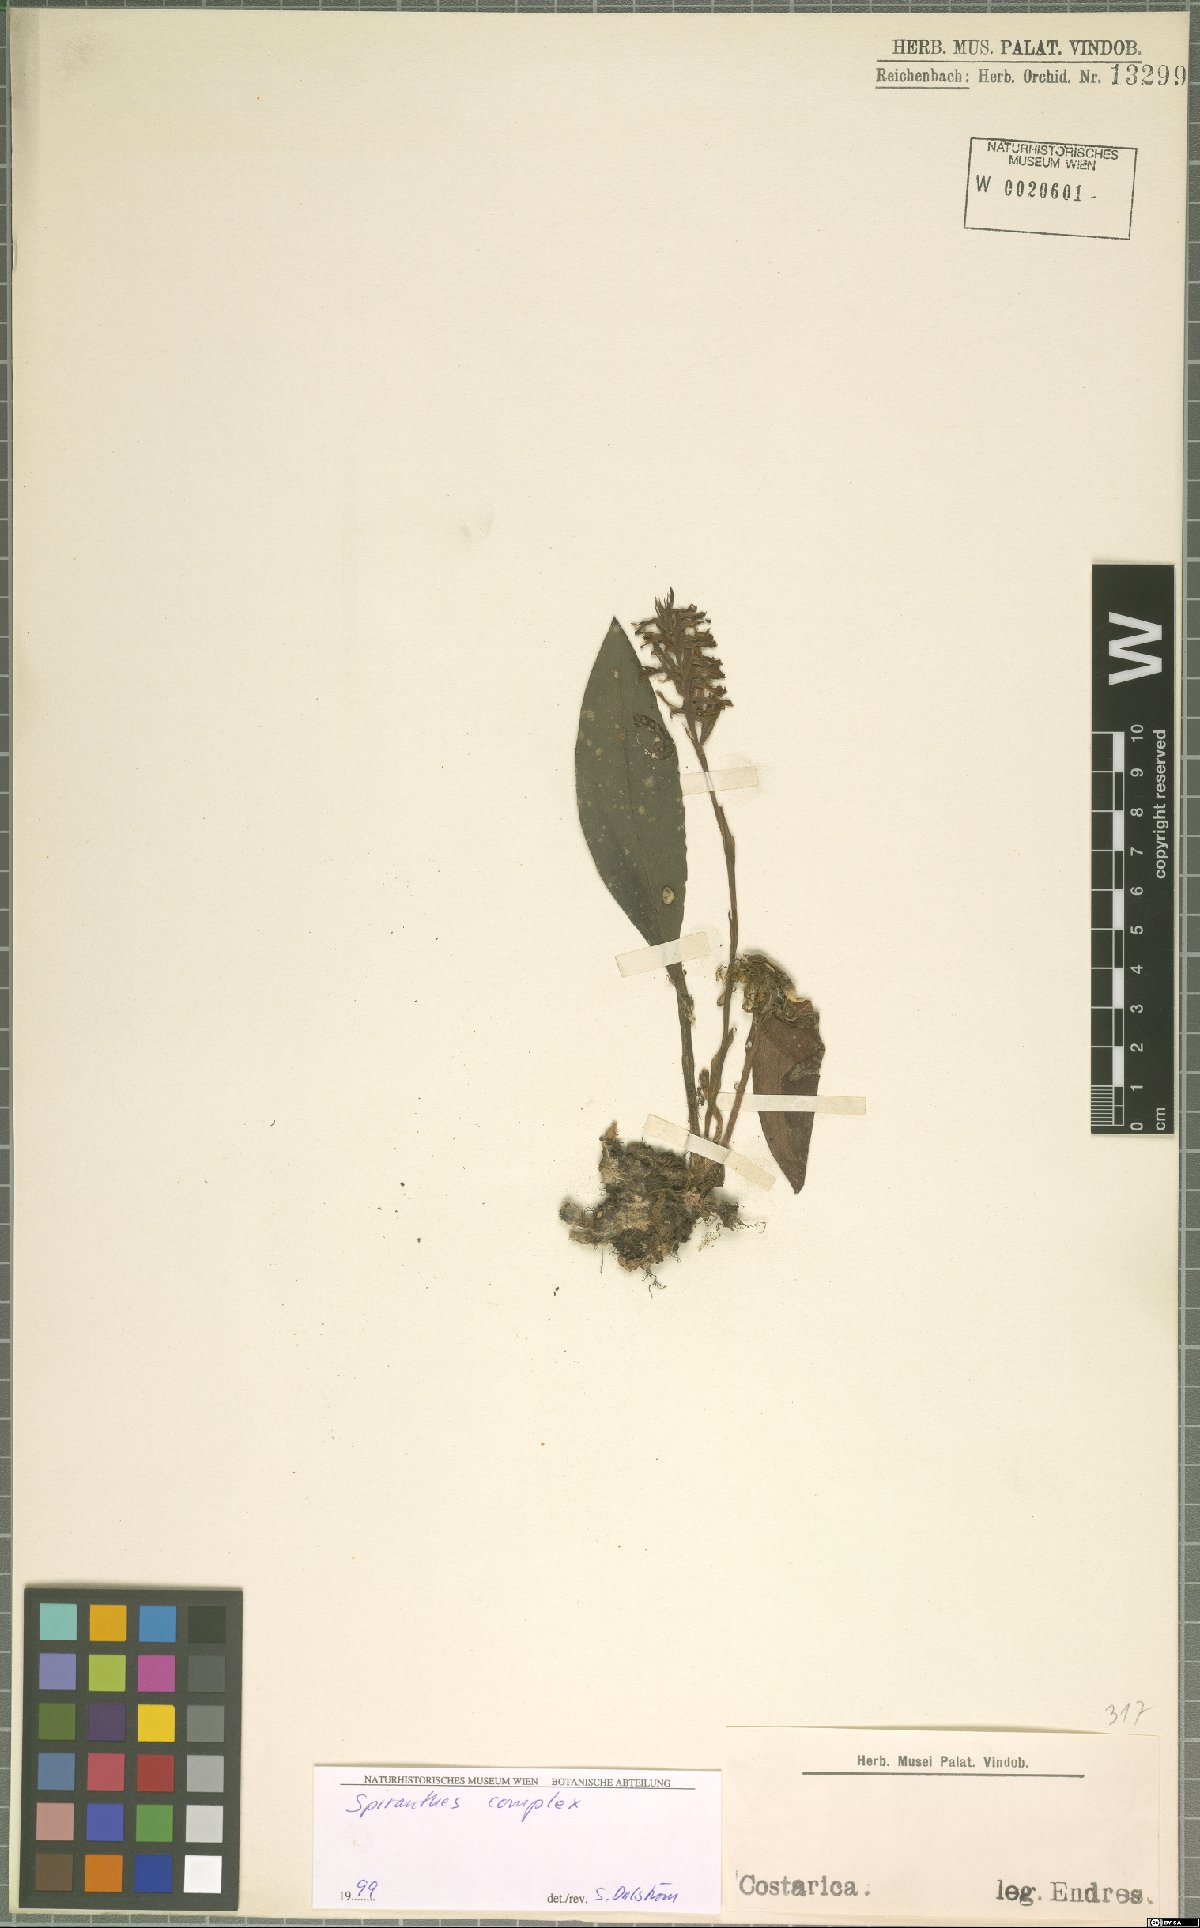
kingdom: Plantae
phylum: Tracheophyta
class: Liliopsida
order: Asparagales
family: Orchidaceae
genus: Spiranthes
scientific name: Spiranthes
